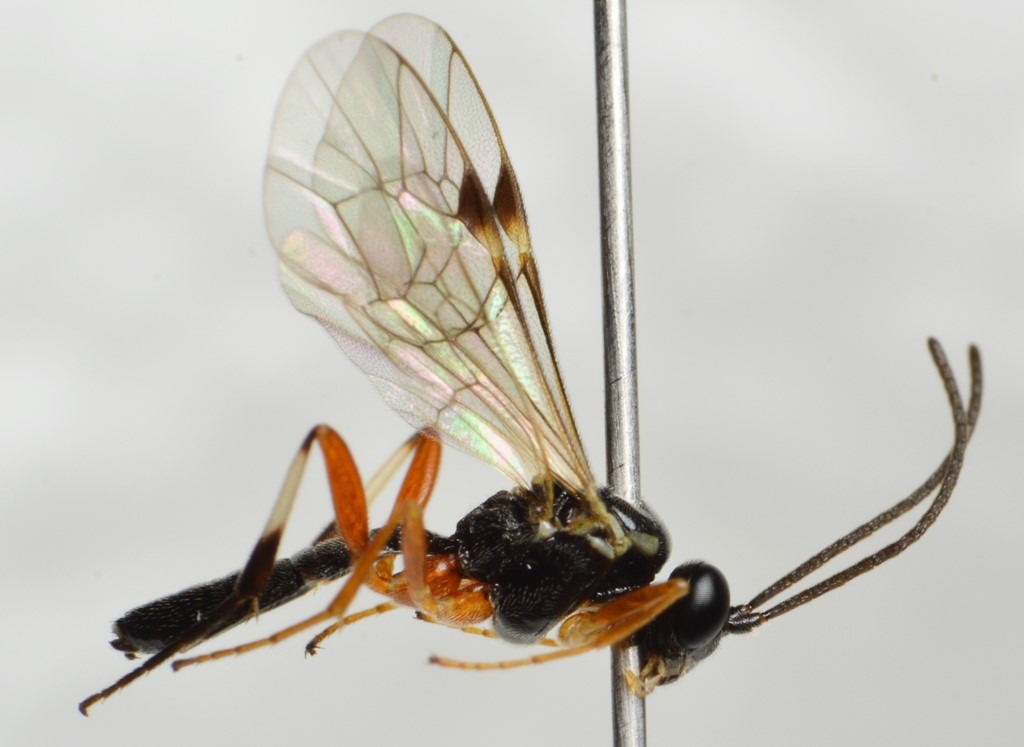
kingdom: Animalia
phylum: Arthropoda
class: Insecta
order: Hymenoptera
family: Ichneumonidae
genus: Diplazon
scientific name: Diplazon tetragonus
